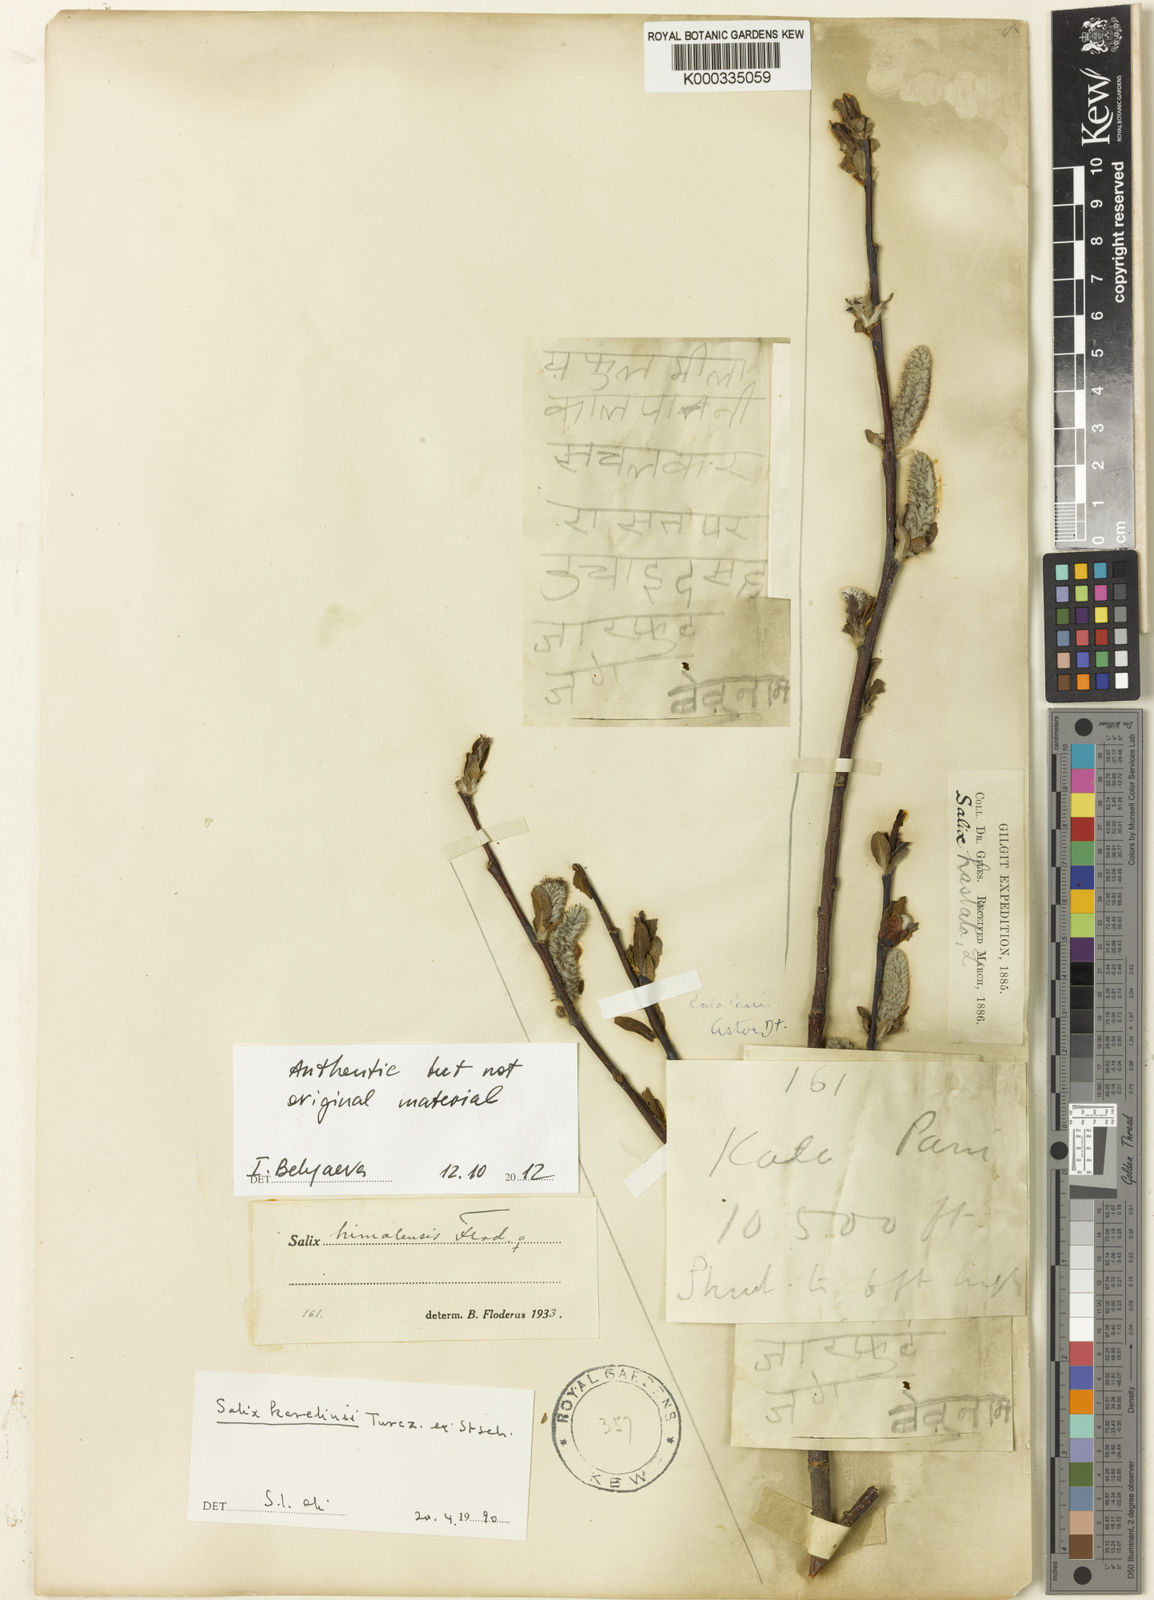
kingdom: Plantae
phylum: Tracheophyta
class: Magnoliopsida
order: Malpighiales
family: Salicaceae
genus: Salix
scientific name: Salix karelinii
